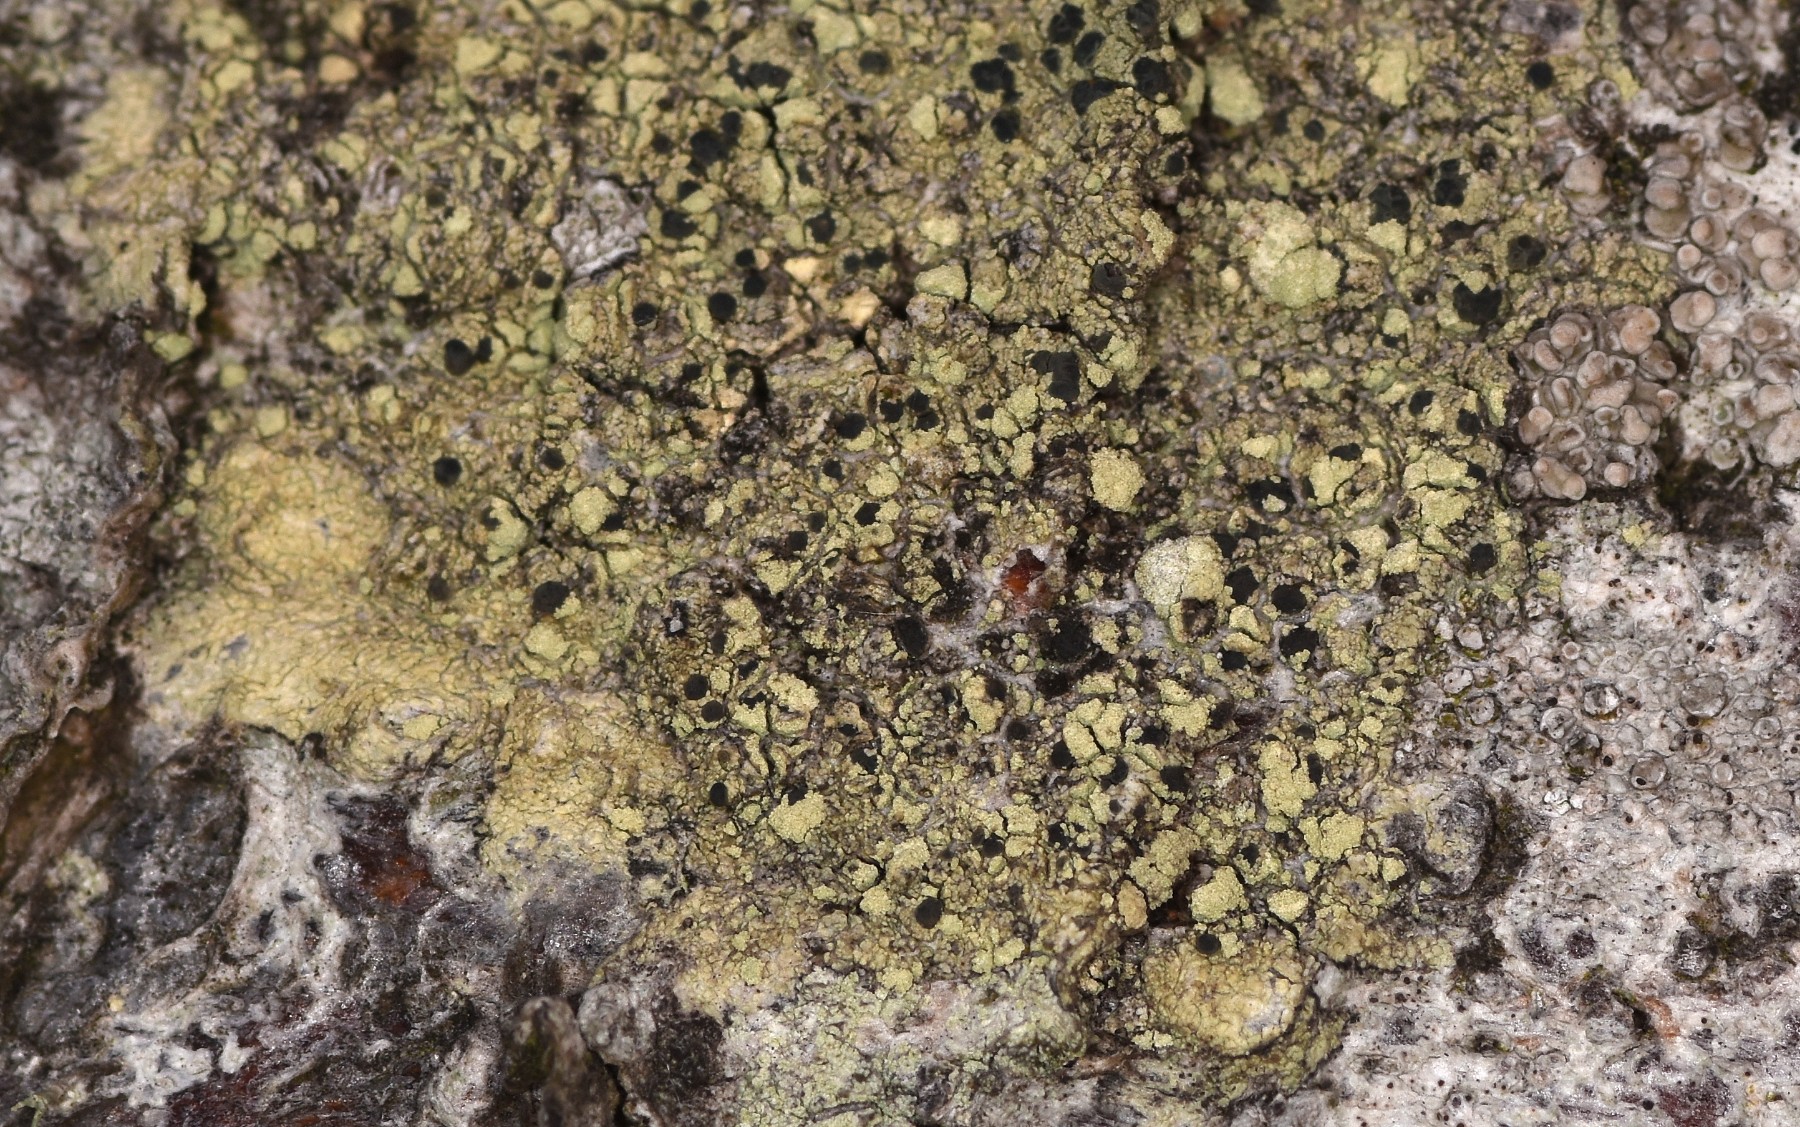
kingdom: Fungi
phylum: Ascomycota
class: Lecanoromycetes
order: Lecanorales
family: Lecanoraceae
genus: Lecidella
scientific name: Lecidella elaeochroma
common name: grågrøn skivelav
